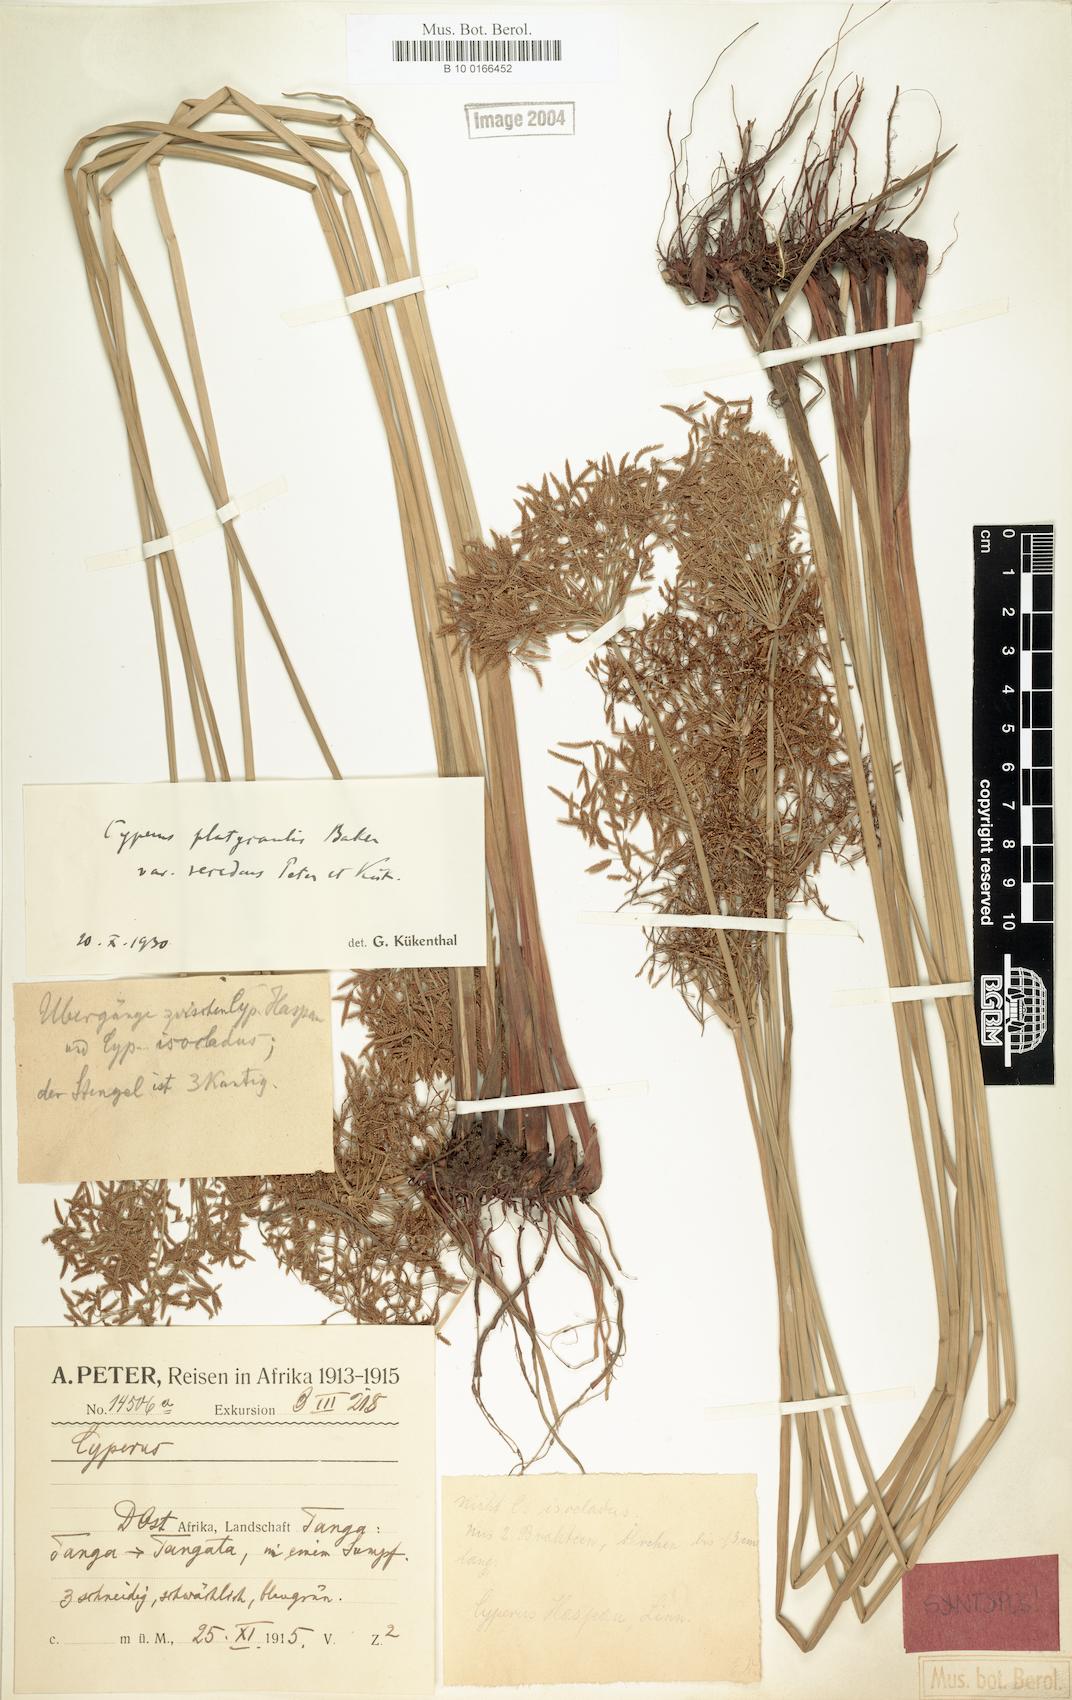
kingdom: Plantae
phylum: Tracheophyta
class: Liliopsida
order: Poales
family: Cyperaceae
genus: Cyperus
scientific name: Cyperus denudatus
